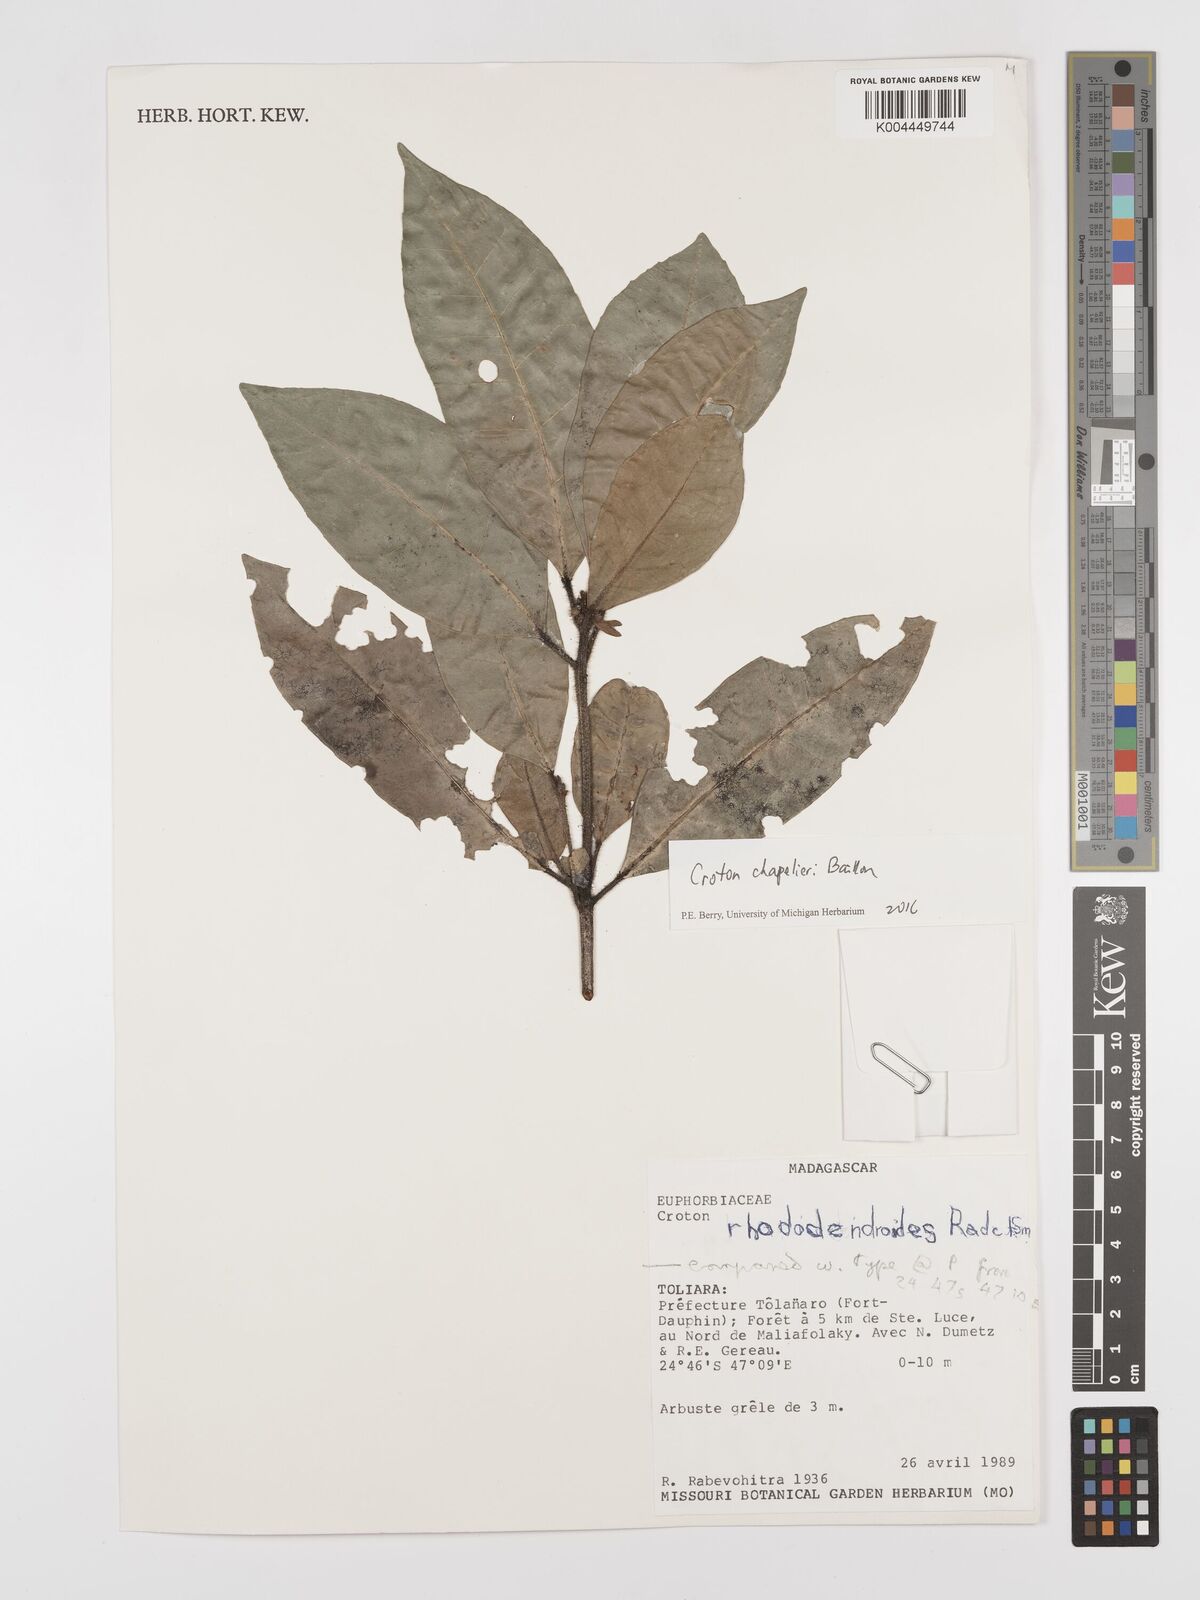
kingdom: Plantae
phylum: Tracheophyta
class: Magnoliopsida
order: Malpighiales
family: Euphorbiaceae
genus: Croton
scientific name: Croton chapelieri
